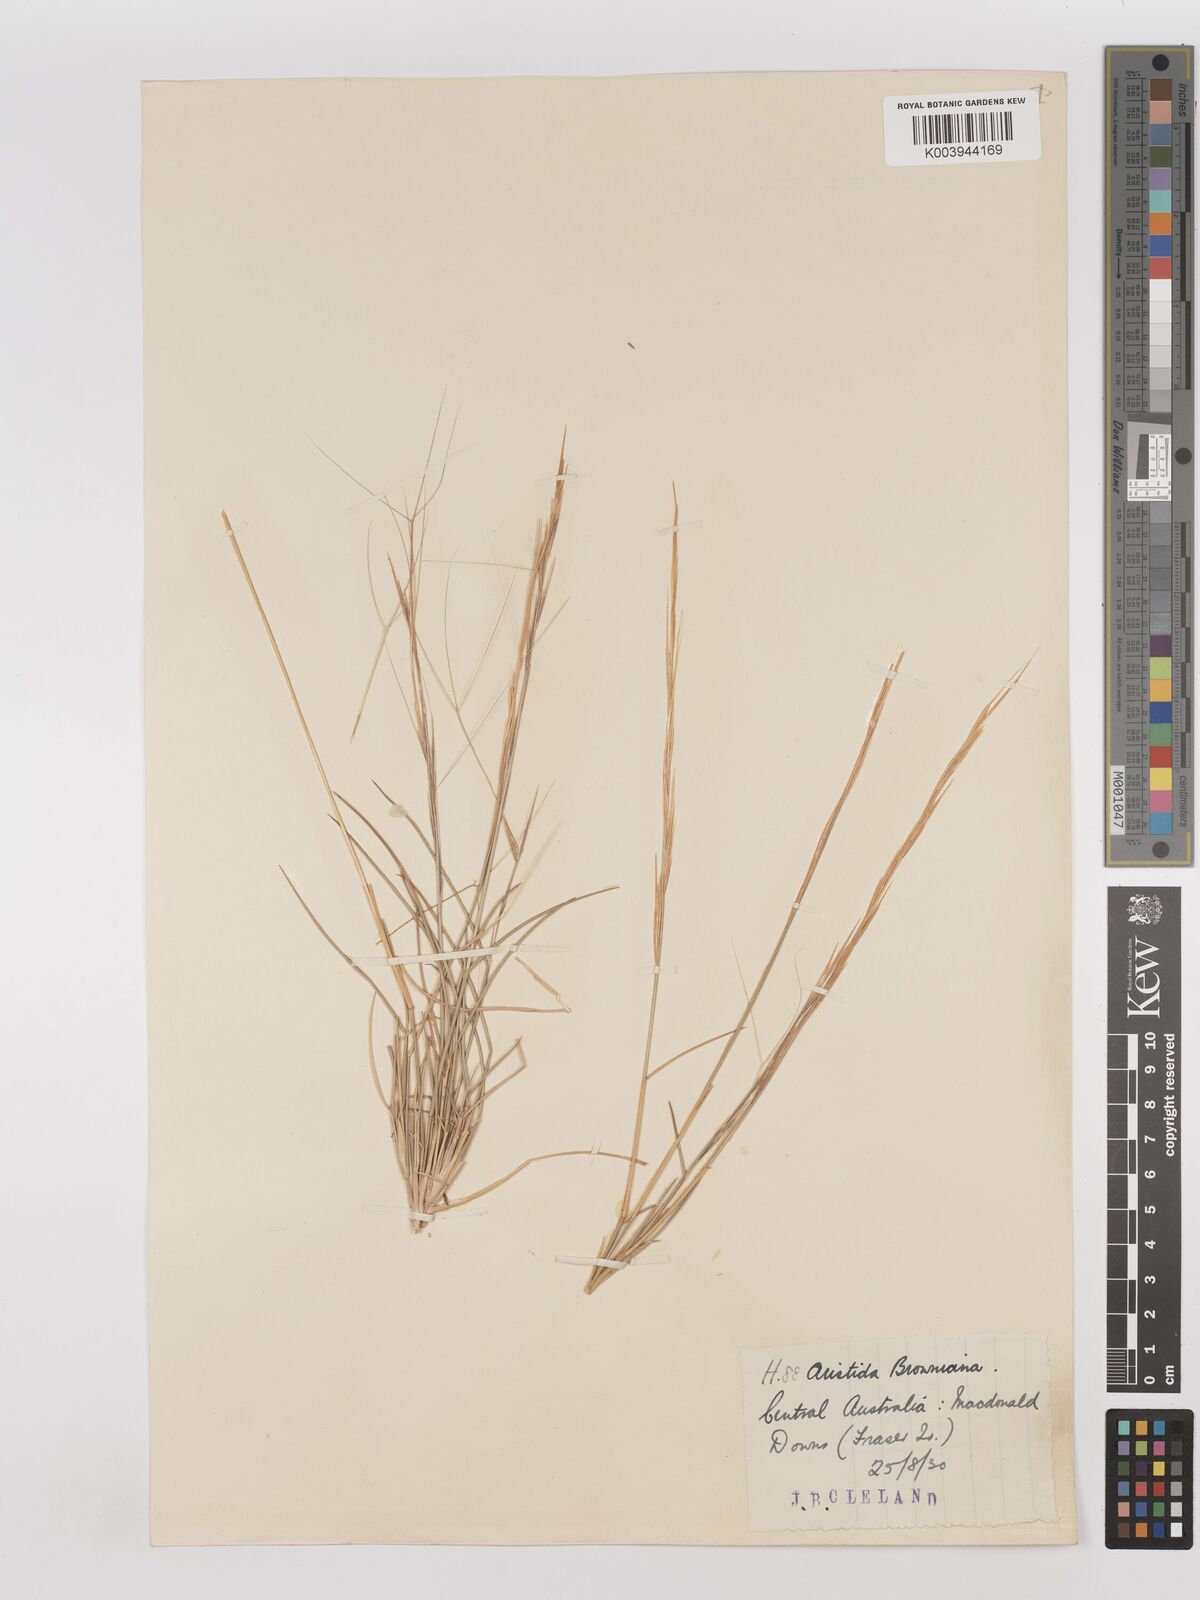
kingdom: Plantae
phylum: Tracheophyta
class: Liliopsida
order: Poales
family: Poaceae
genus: Aristida
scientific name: Aristida holathera
